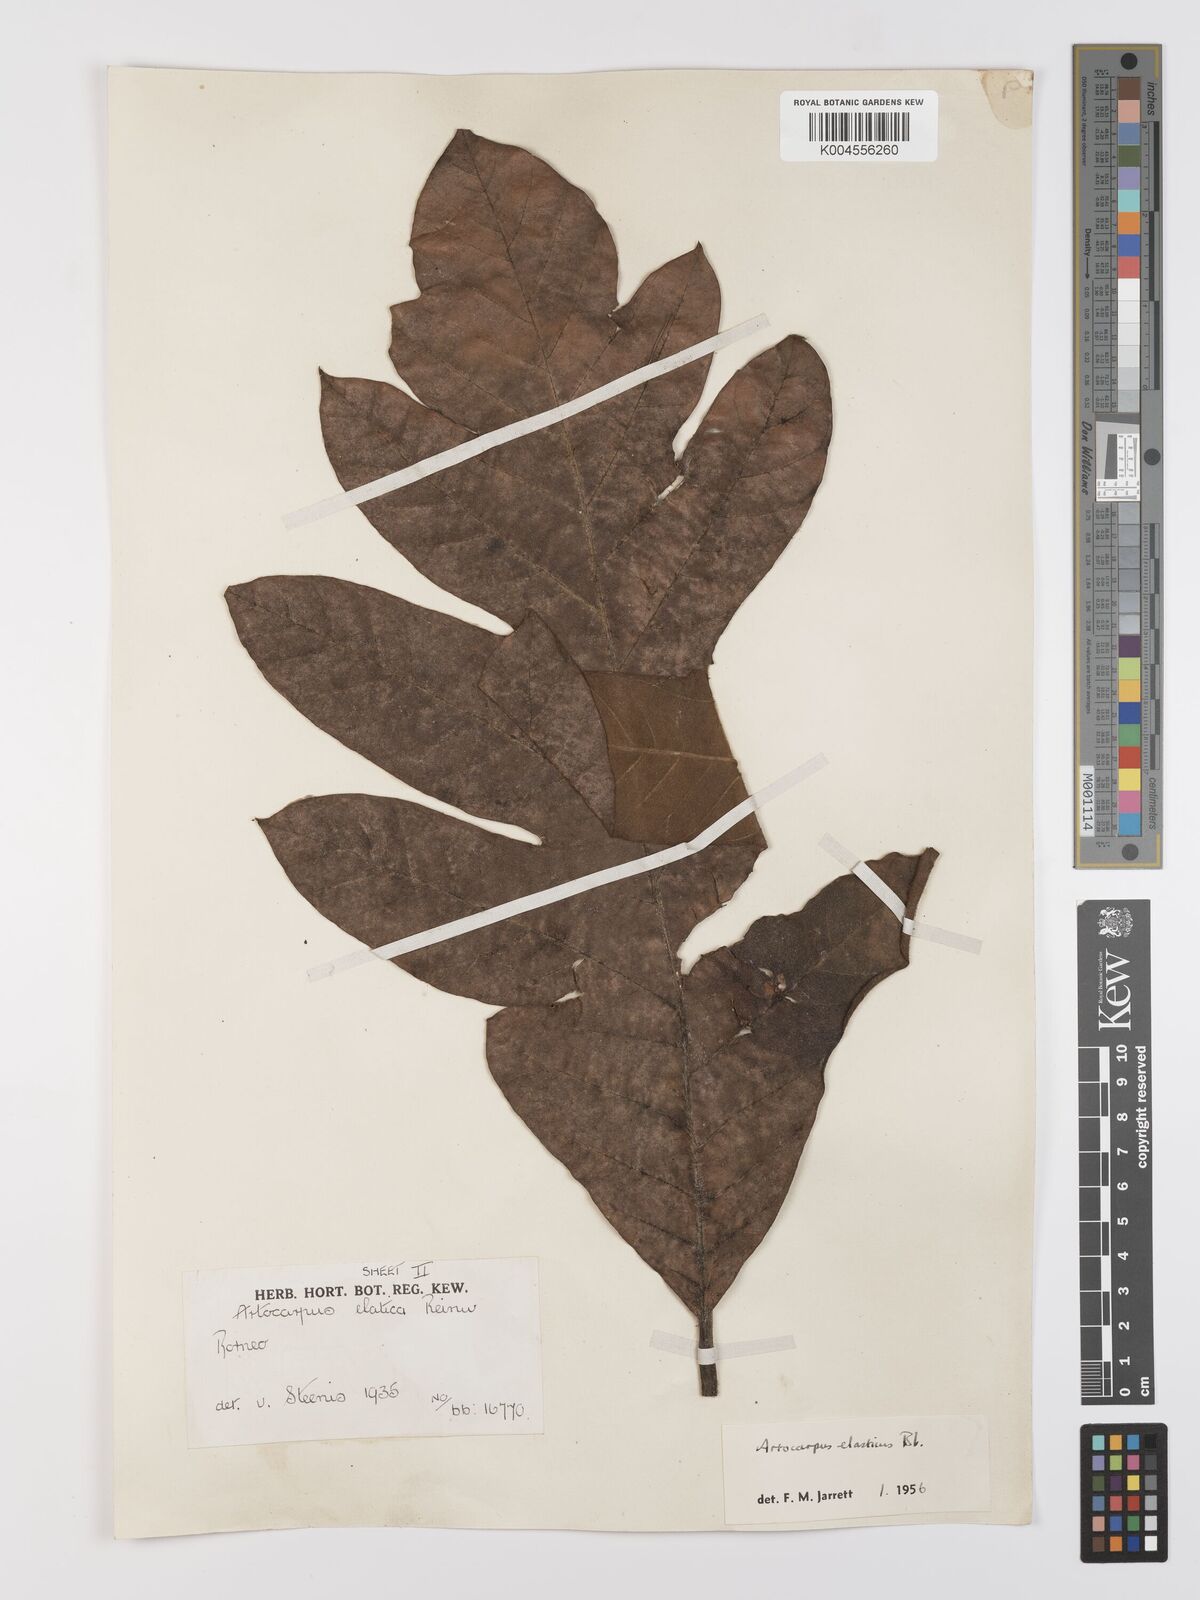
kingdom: Plantae
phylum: Tracheophyta
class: Magnoliopsida
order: Rosales
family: Moraceae
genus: Artocarpus
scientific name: Artocarpus elasticus
